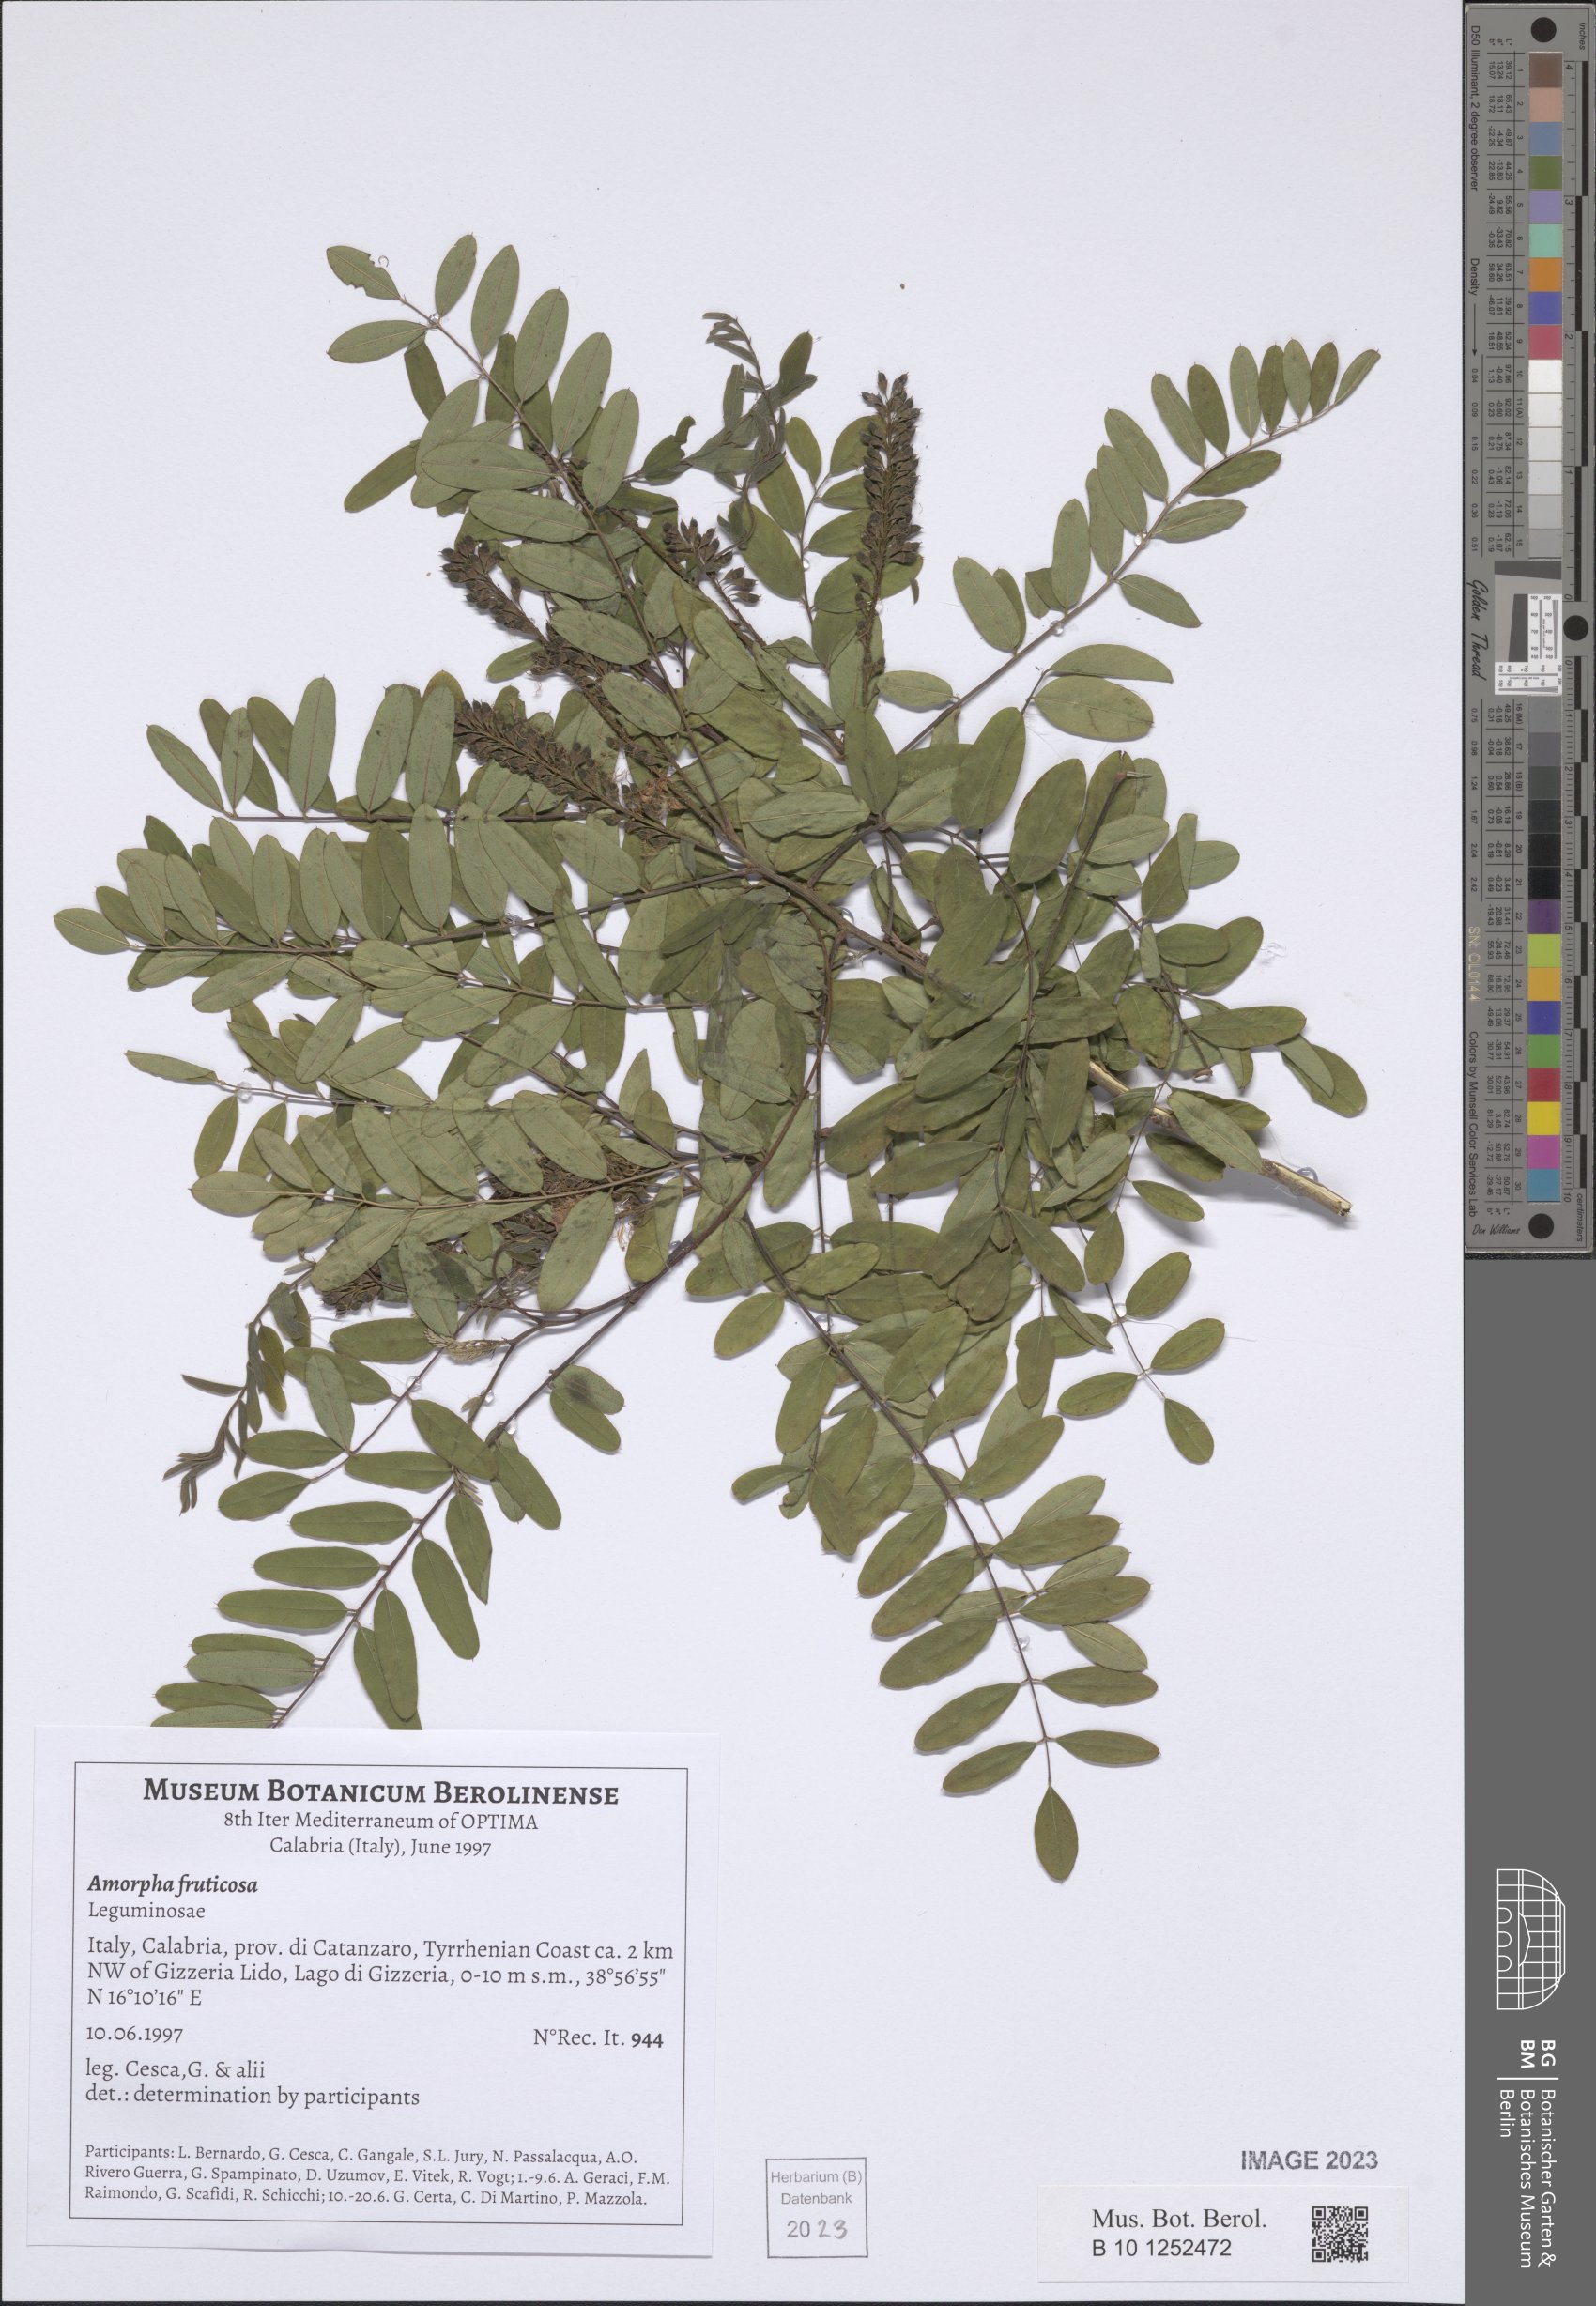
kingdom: Plantae
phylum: Tracheophyta
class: Magnoliopsida
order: Fabales
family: Fabaceae
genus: Amorpha
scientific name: Amorpha fruticosa
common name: False indigo
